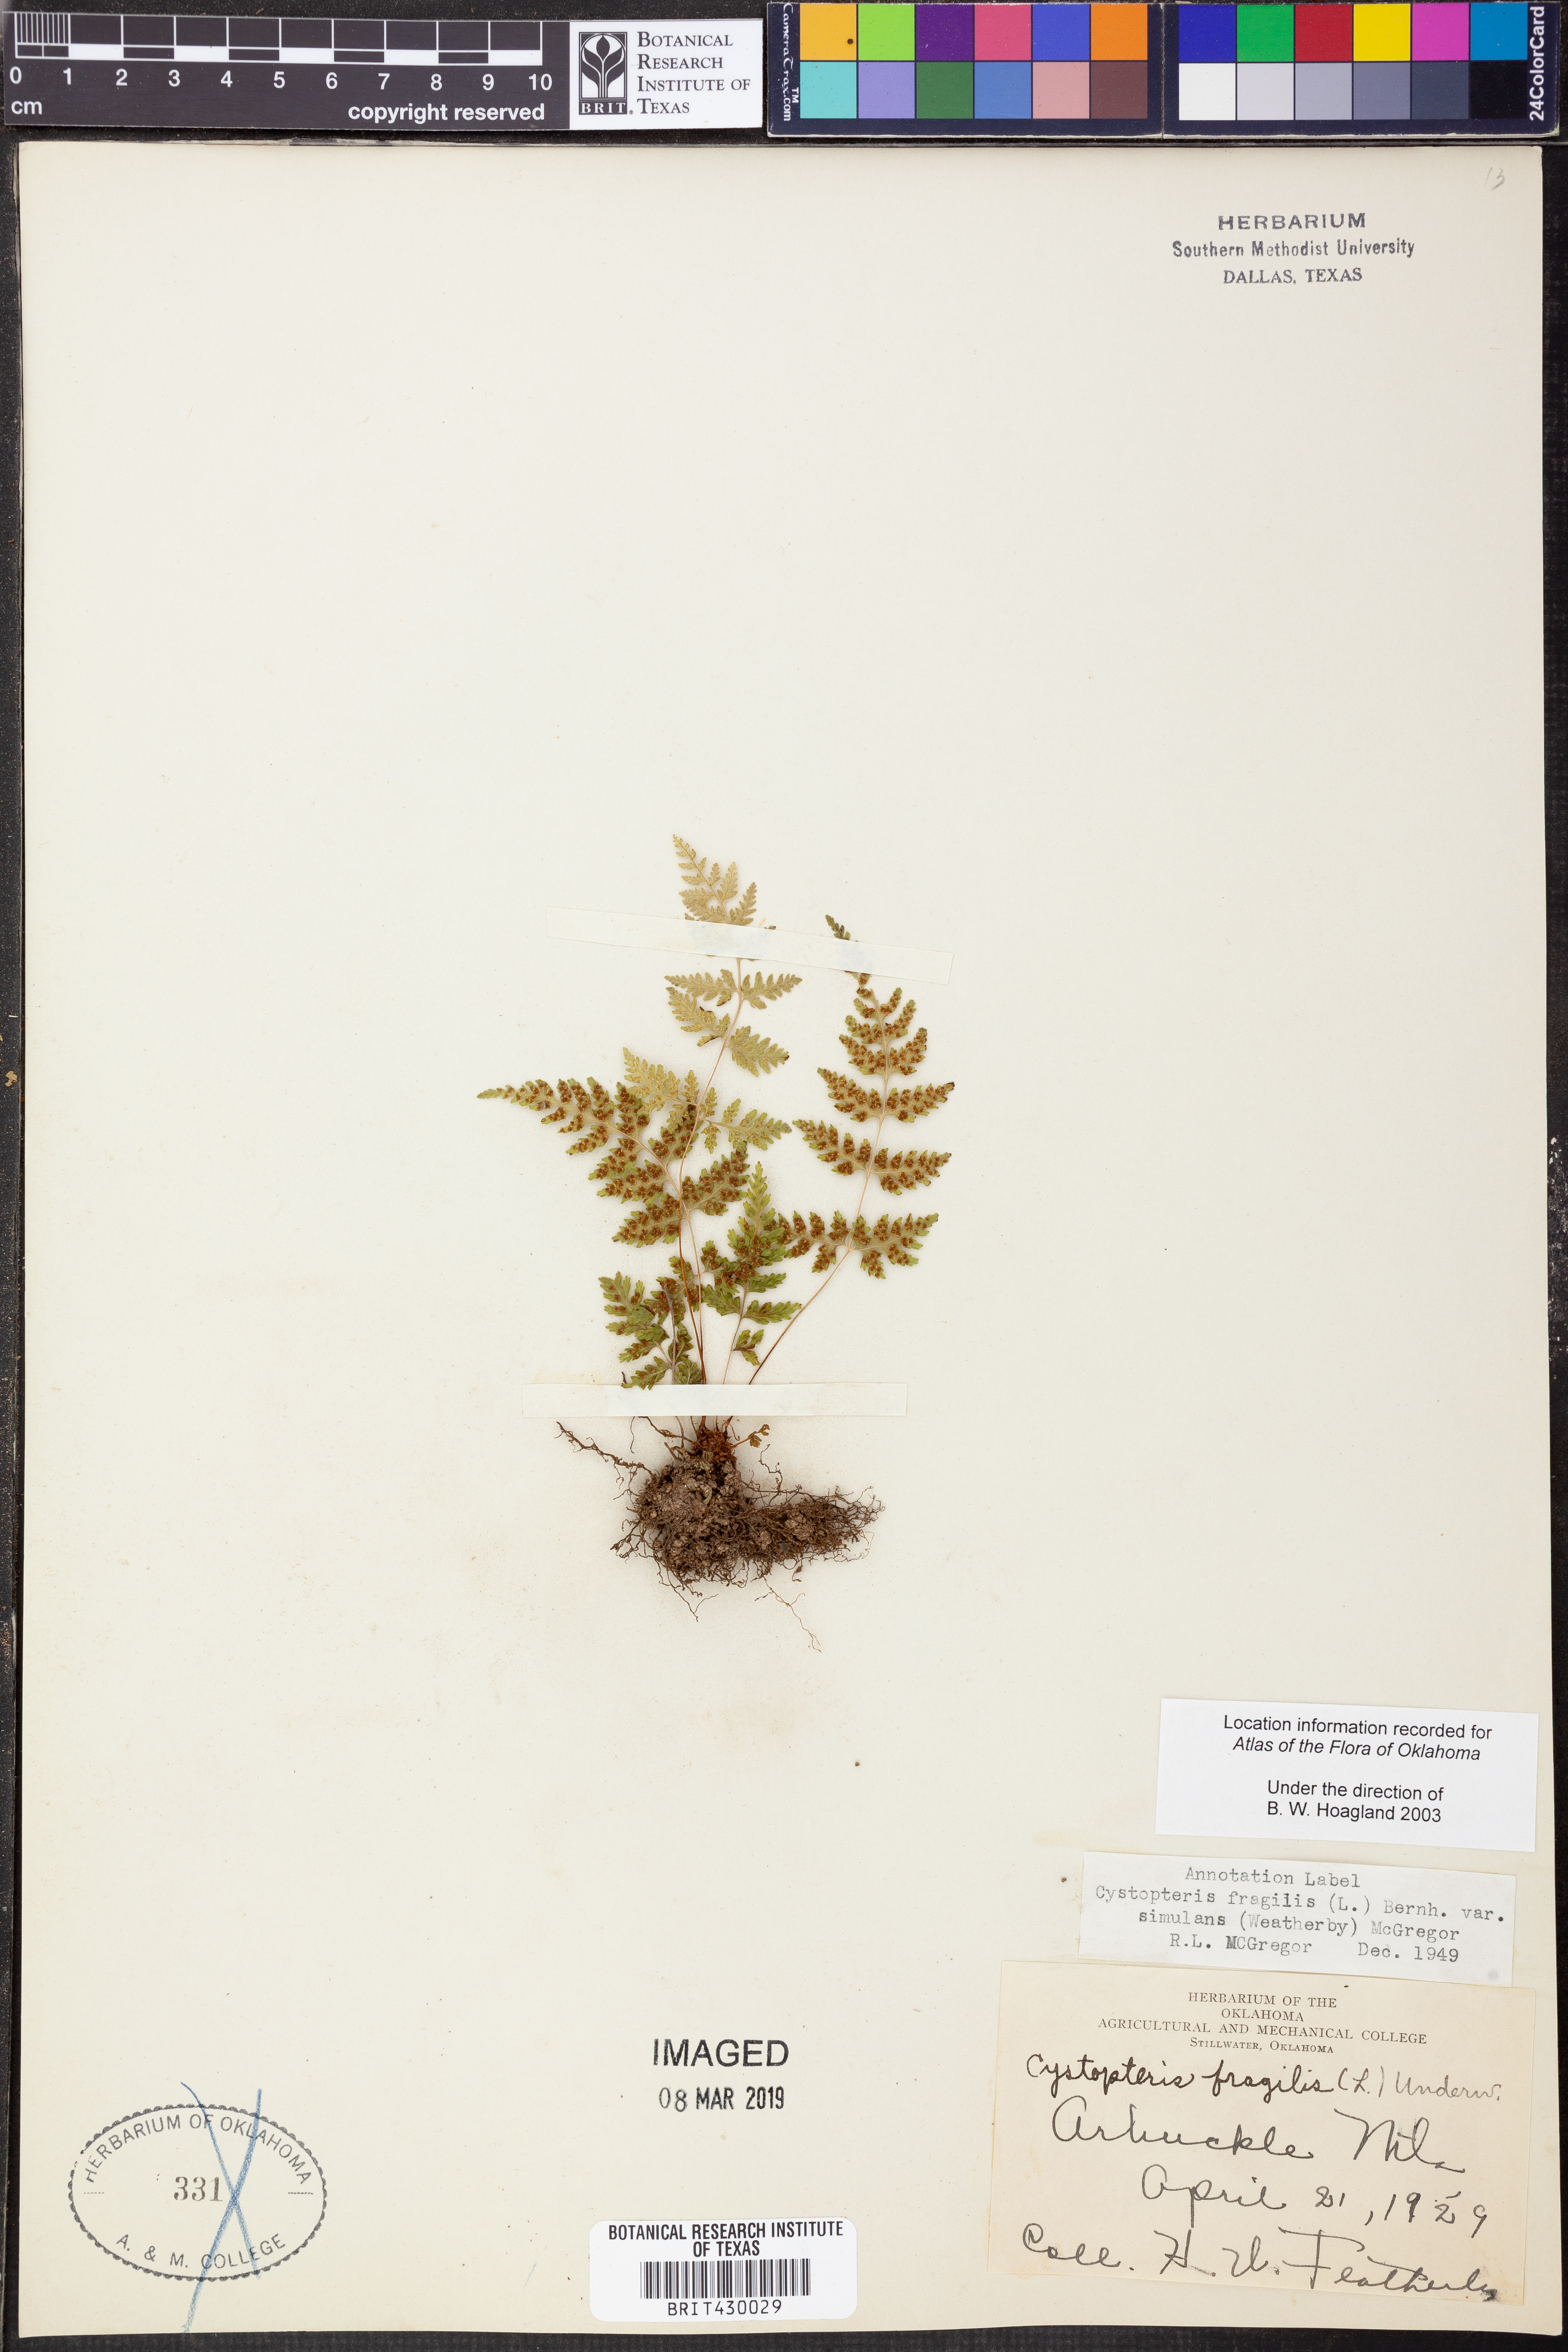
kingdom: Plantae
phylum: Tracheophyta
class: Polypodiopsida
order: Polypodiales
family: Cystopteridaceae
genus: Cystopteris
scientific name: Cystopteris tennesseensis
